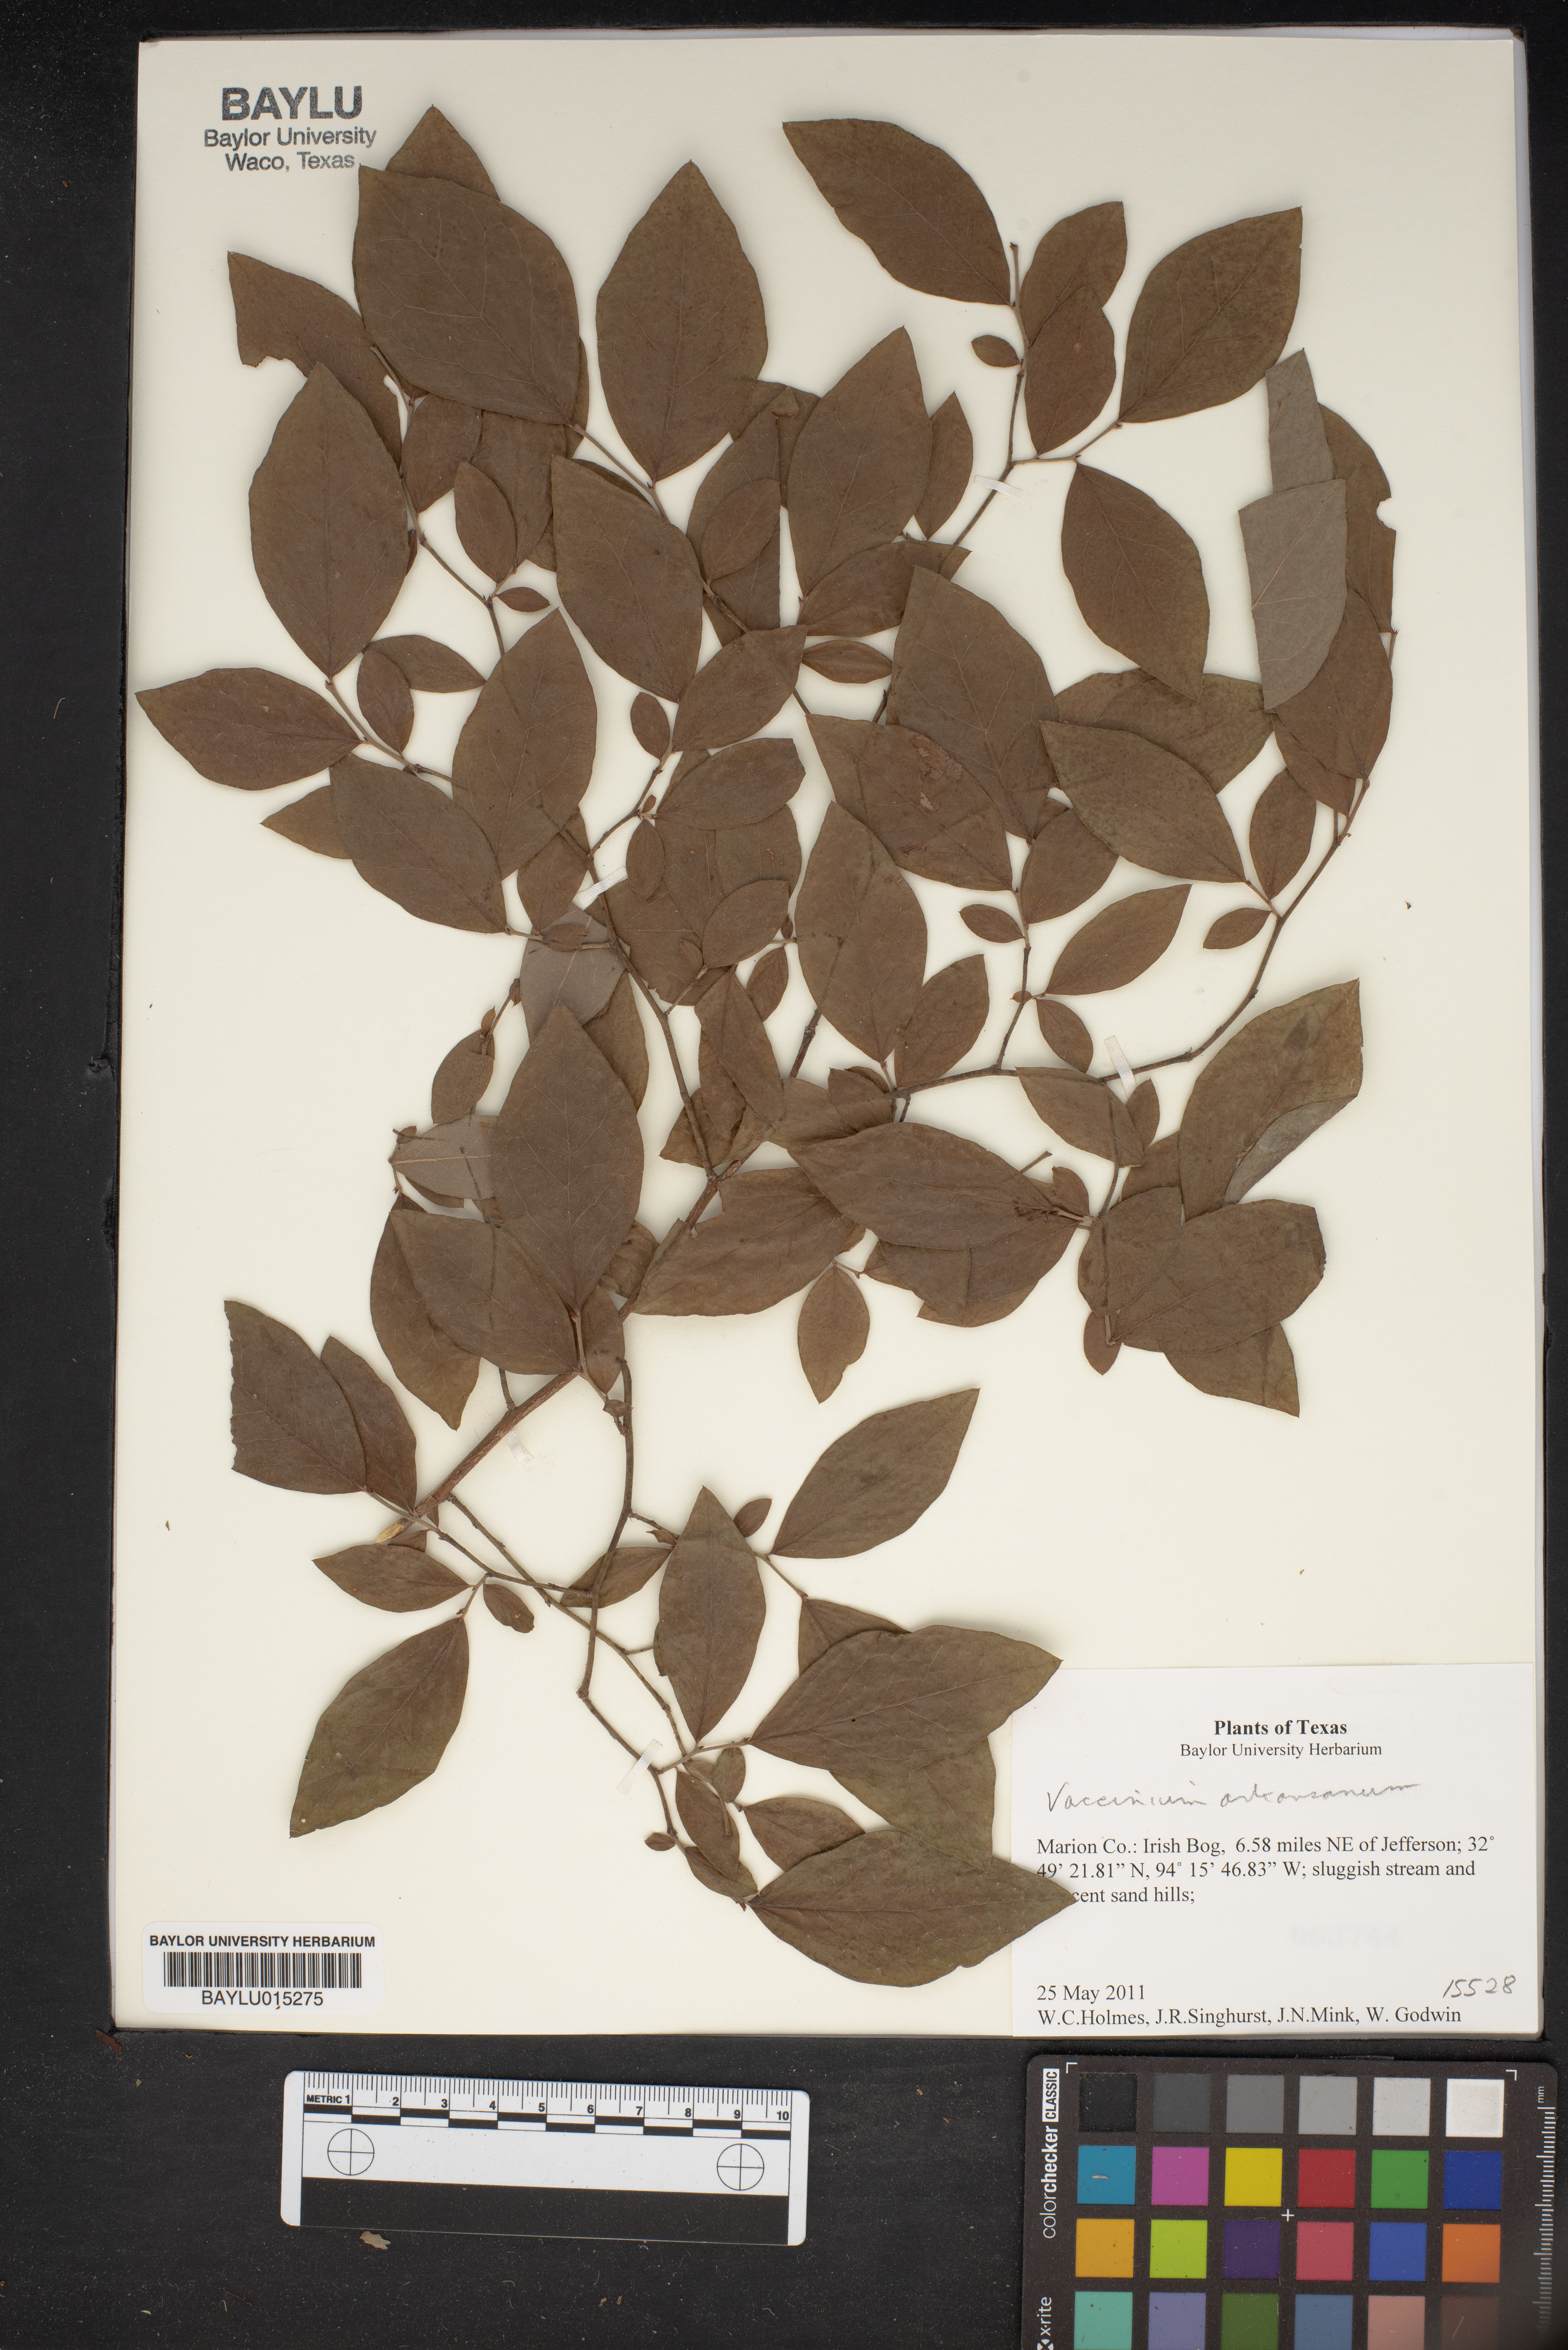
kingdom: Plantae
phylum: Tracheophyta
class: Magnoliopsida
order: Ericales
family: Ericaceae
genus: Vaccinium
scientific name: Vaccinium corymbosum
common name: Blueberry
